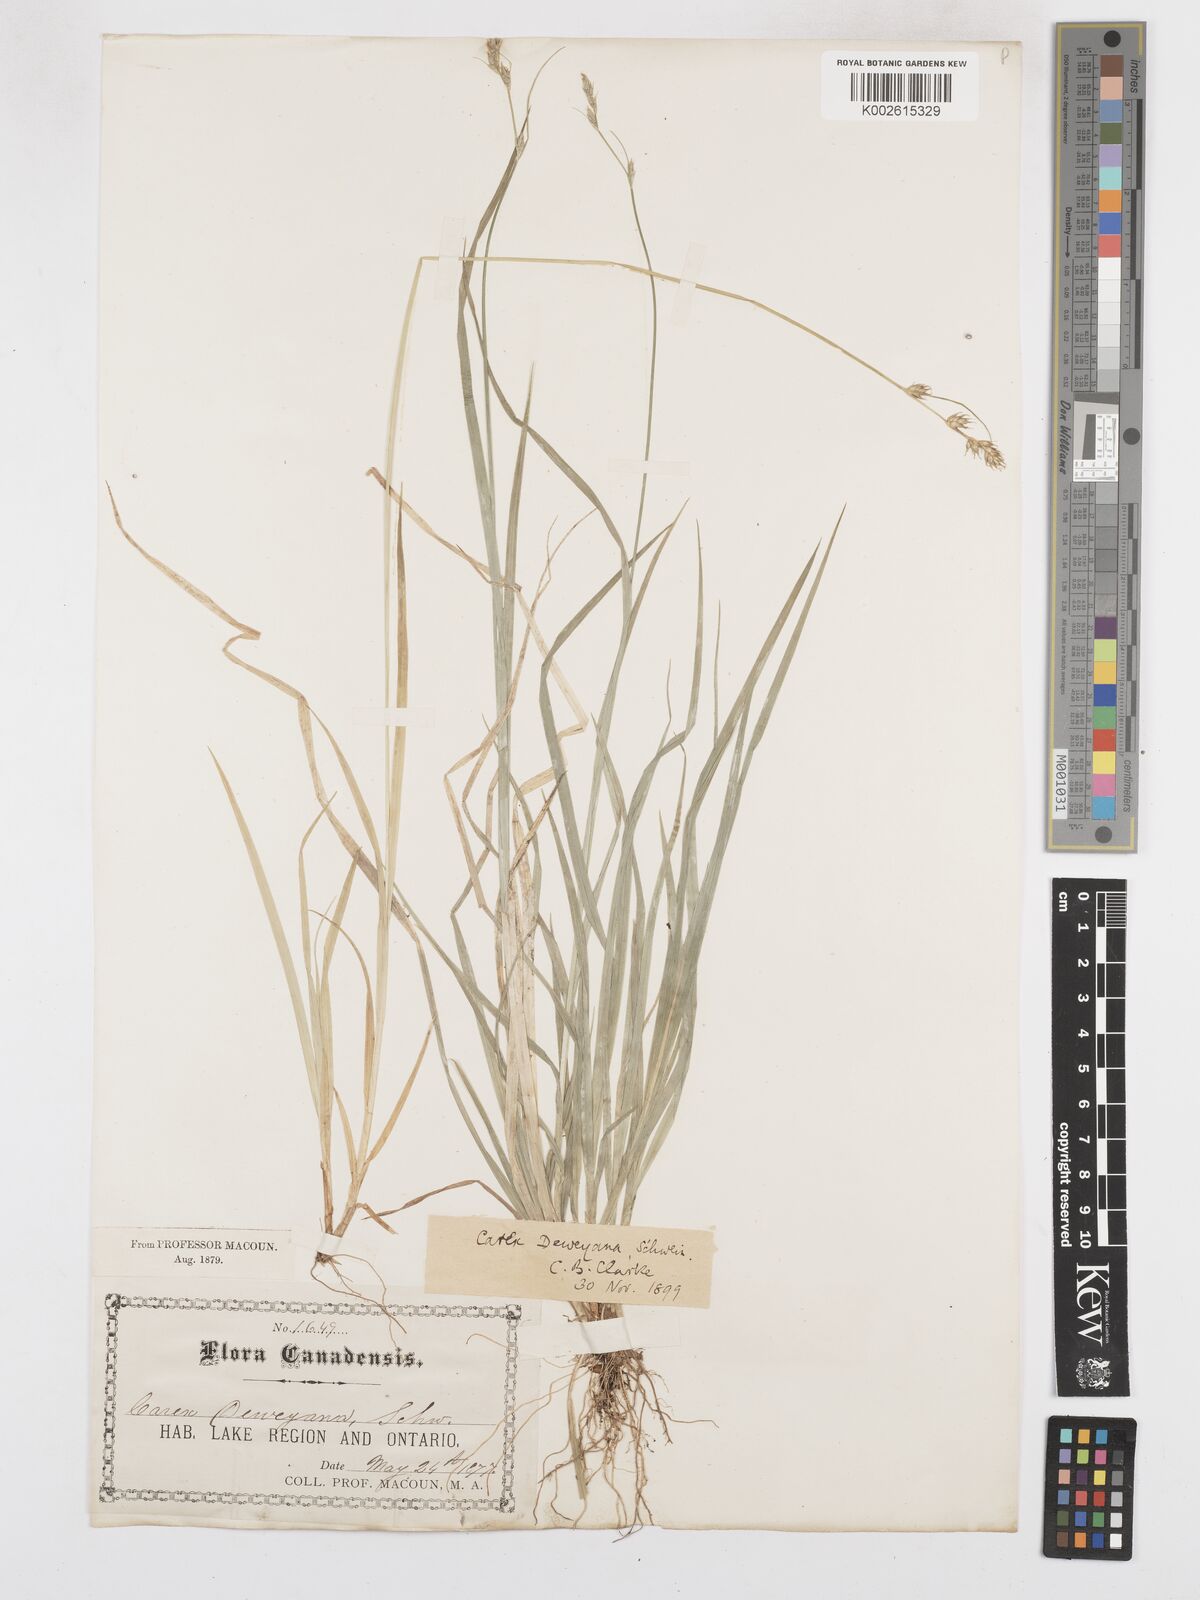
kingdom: Plantae
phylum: Tracheophyta
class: Liliopsida
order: Poales
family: Cyperaceae
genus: Carex
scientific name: Carex deweyana
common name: Dewey's sedge
